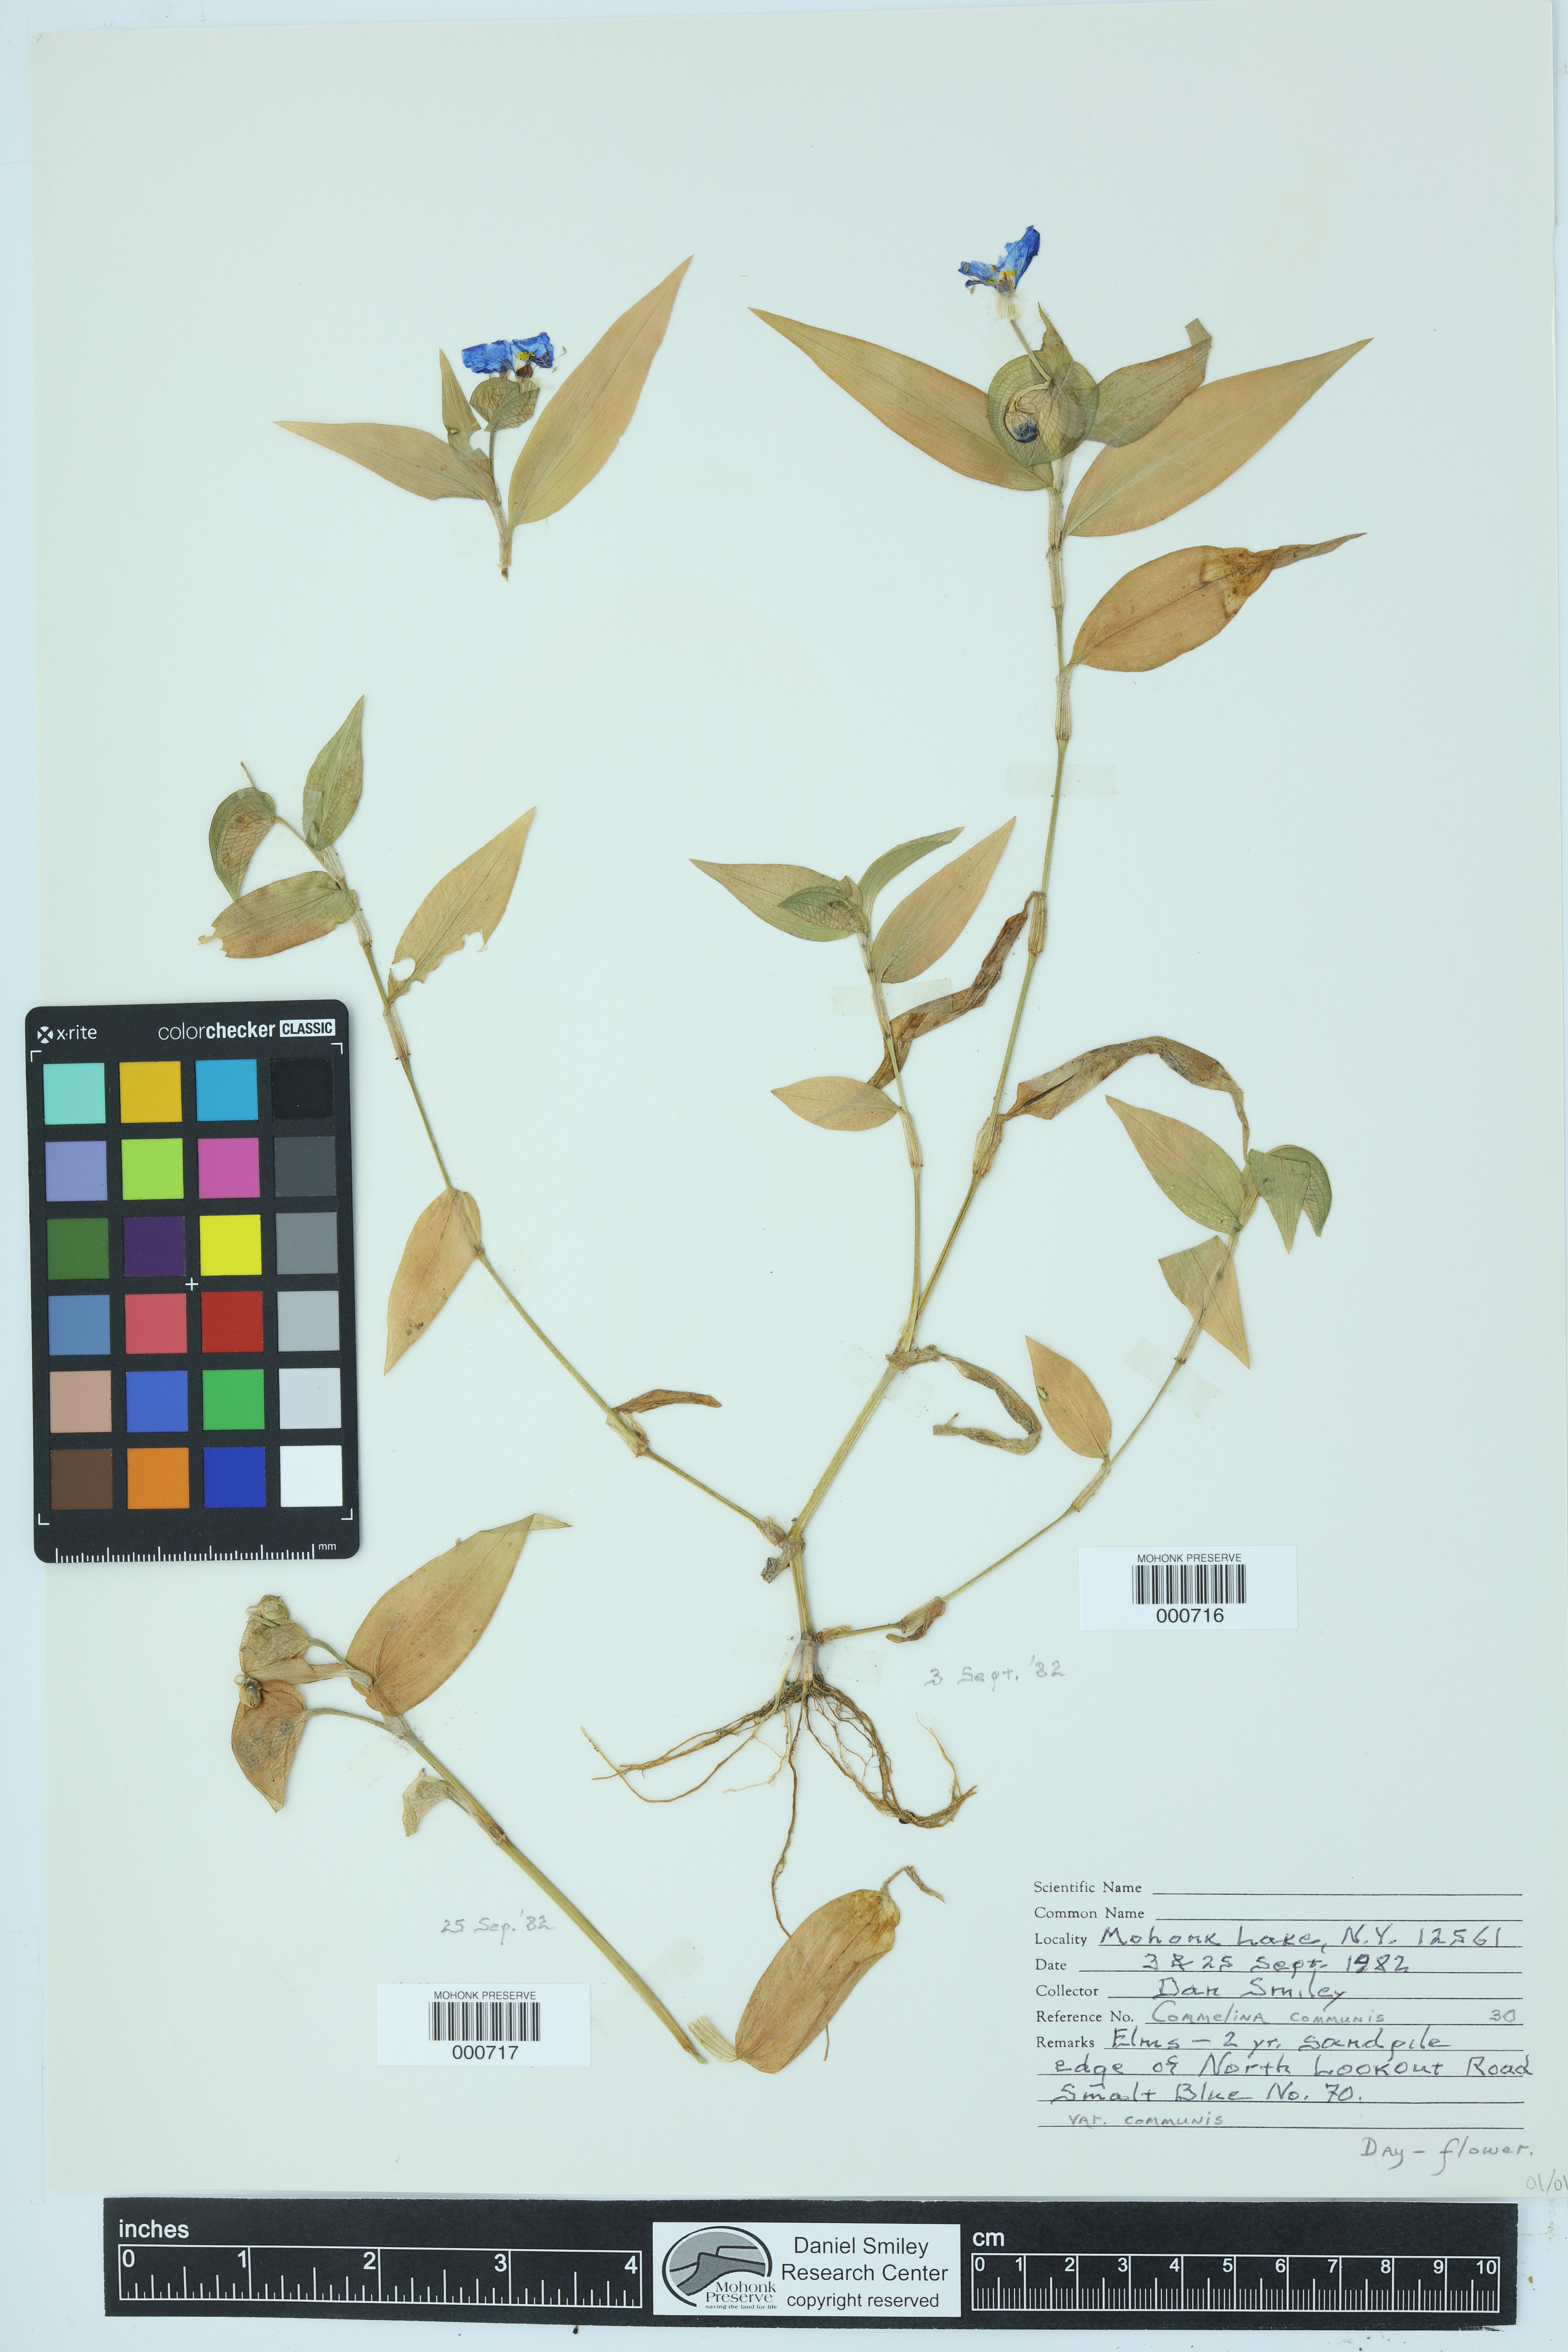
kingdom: Plantae
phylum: Tracheophyta
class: Liliopsida
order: Commelinales
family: Commelinaceae
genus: Commelina
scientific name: Commelina communis
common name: Asiatic dayflower
